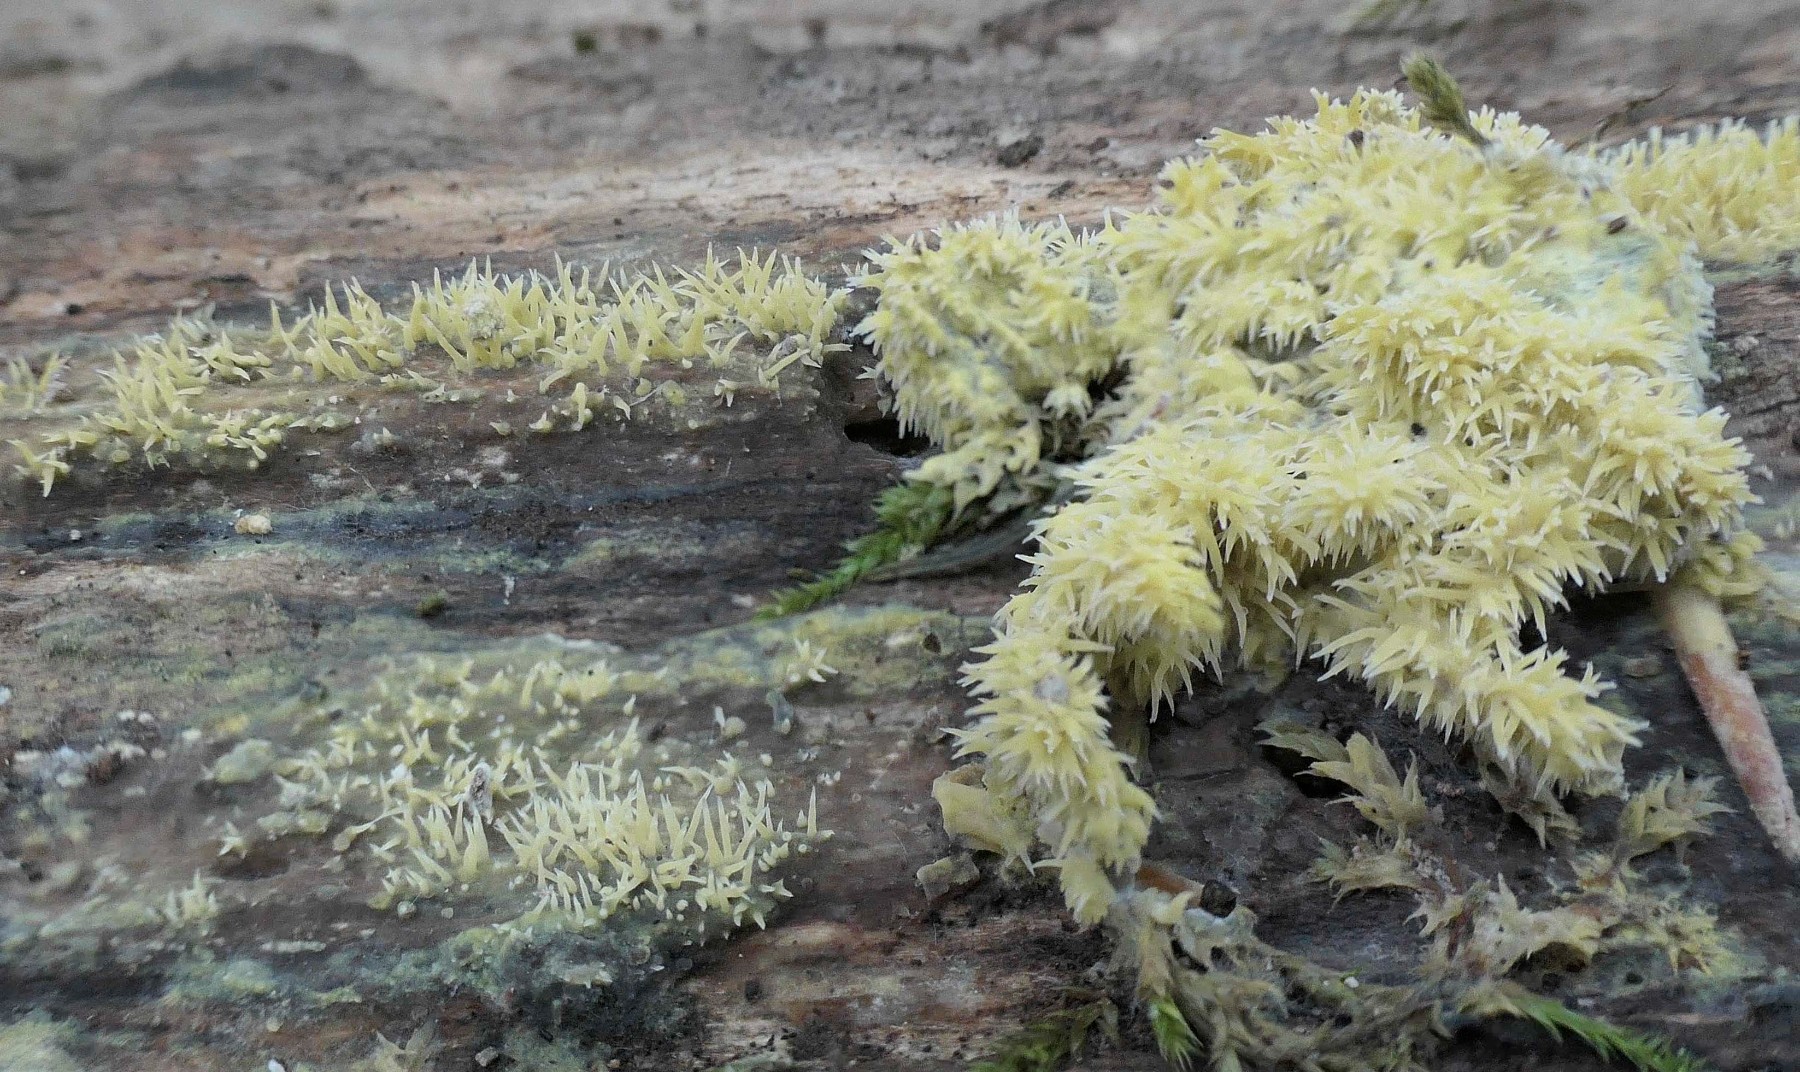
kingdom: Fungi
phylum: Basidiomycota
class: Agaricomycetes
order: Polyporales
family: Meruliaceae
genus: Mycoacia
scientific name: Mycoacia uda
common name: citrongul vokspig
